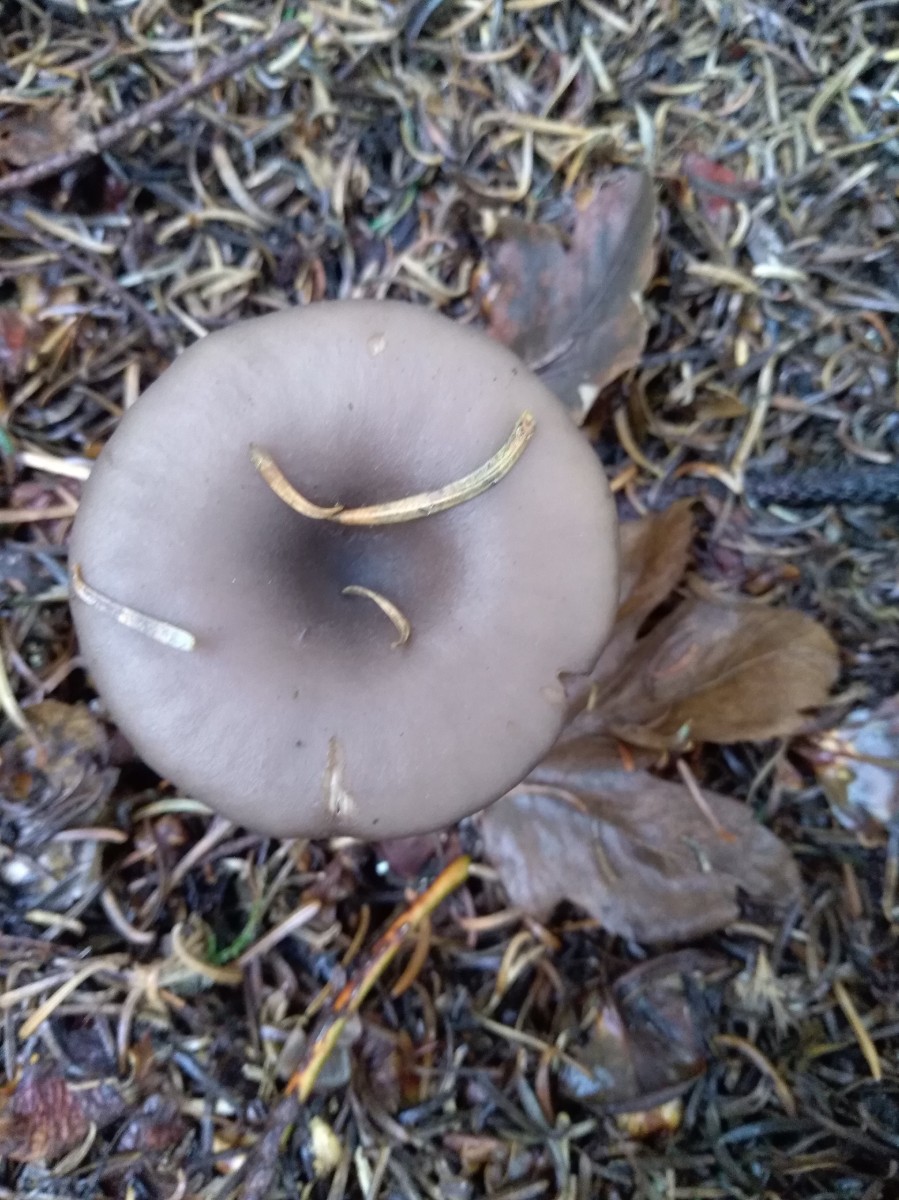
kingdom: Fungi
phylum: Basidiomycota
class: Agaricomycetes
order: Agaricales
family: Pseudoclitocybaceae
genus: Pseudoclitocybe
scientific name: Pseudoclitocybe cyathiformis
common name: almindelig bægertragthat
